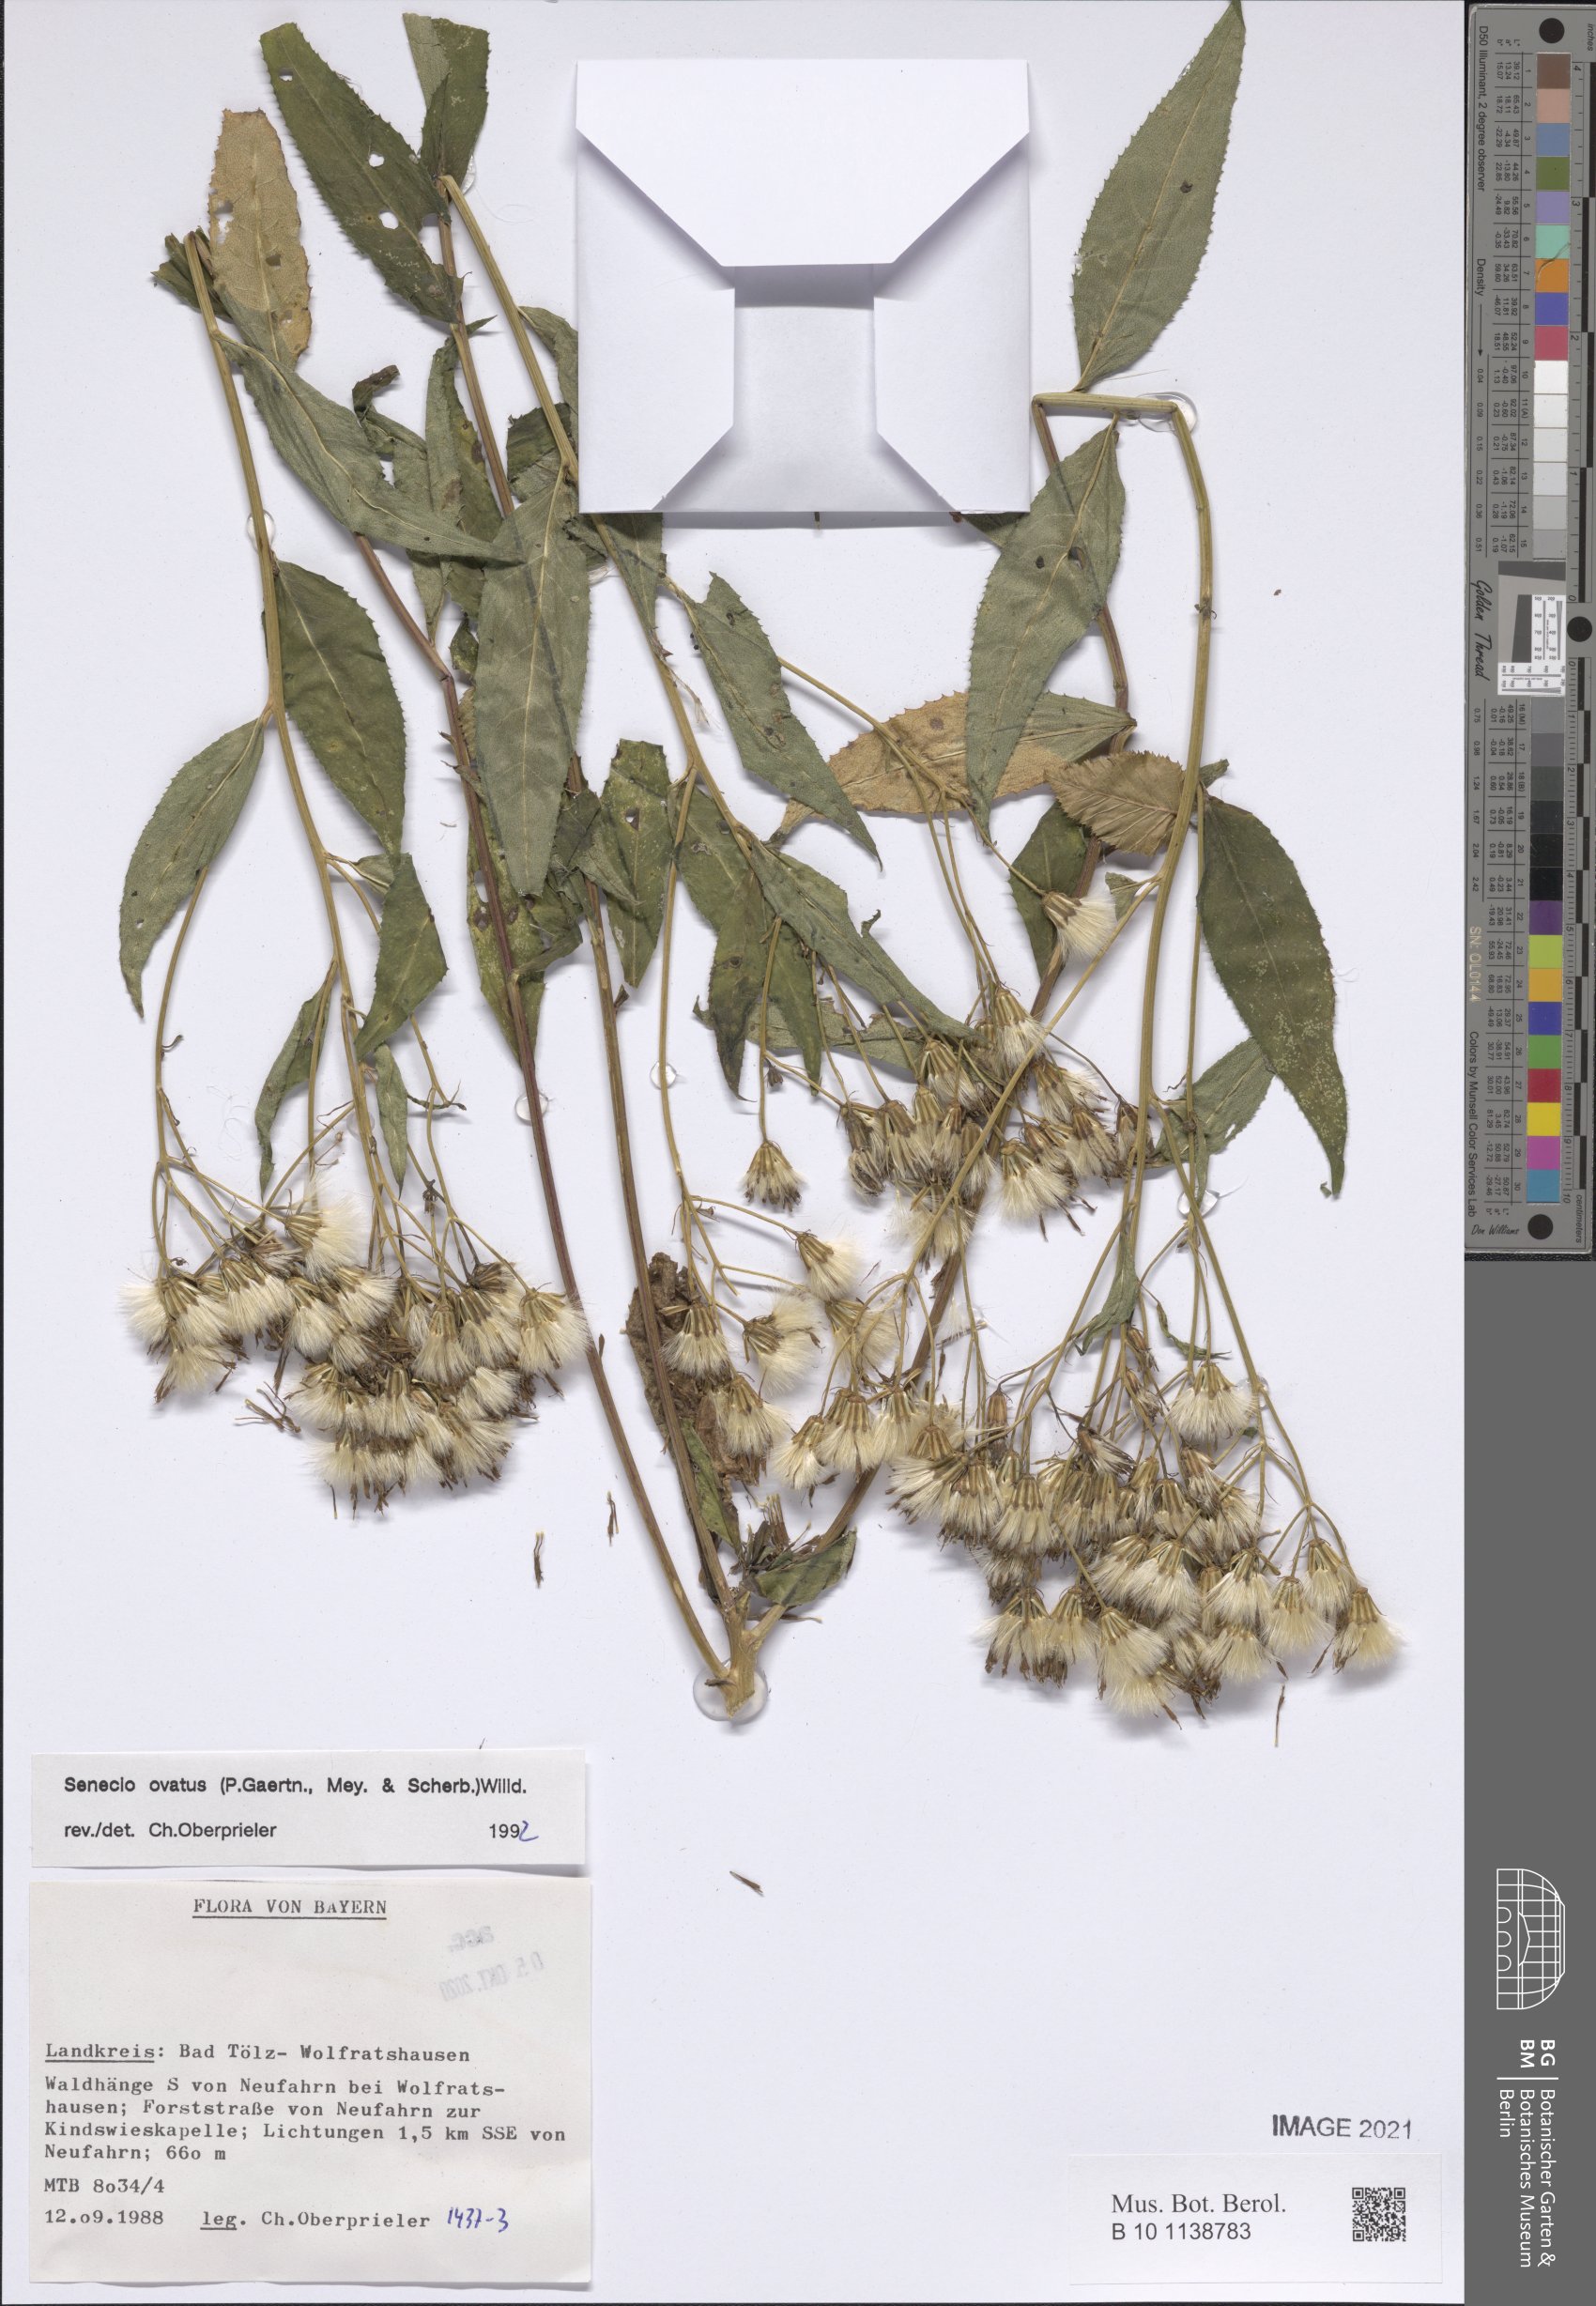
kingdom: Plantae
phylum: Tracheophyta
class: Magnoliopsida
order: Asterales
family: Asteraceae
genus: Senecio
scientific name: Senecio ovatus
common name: Wood ragwort
